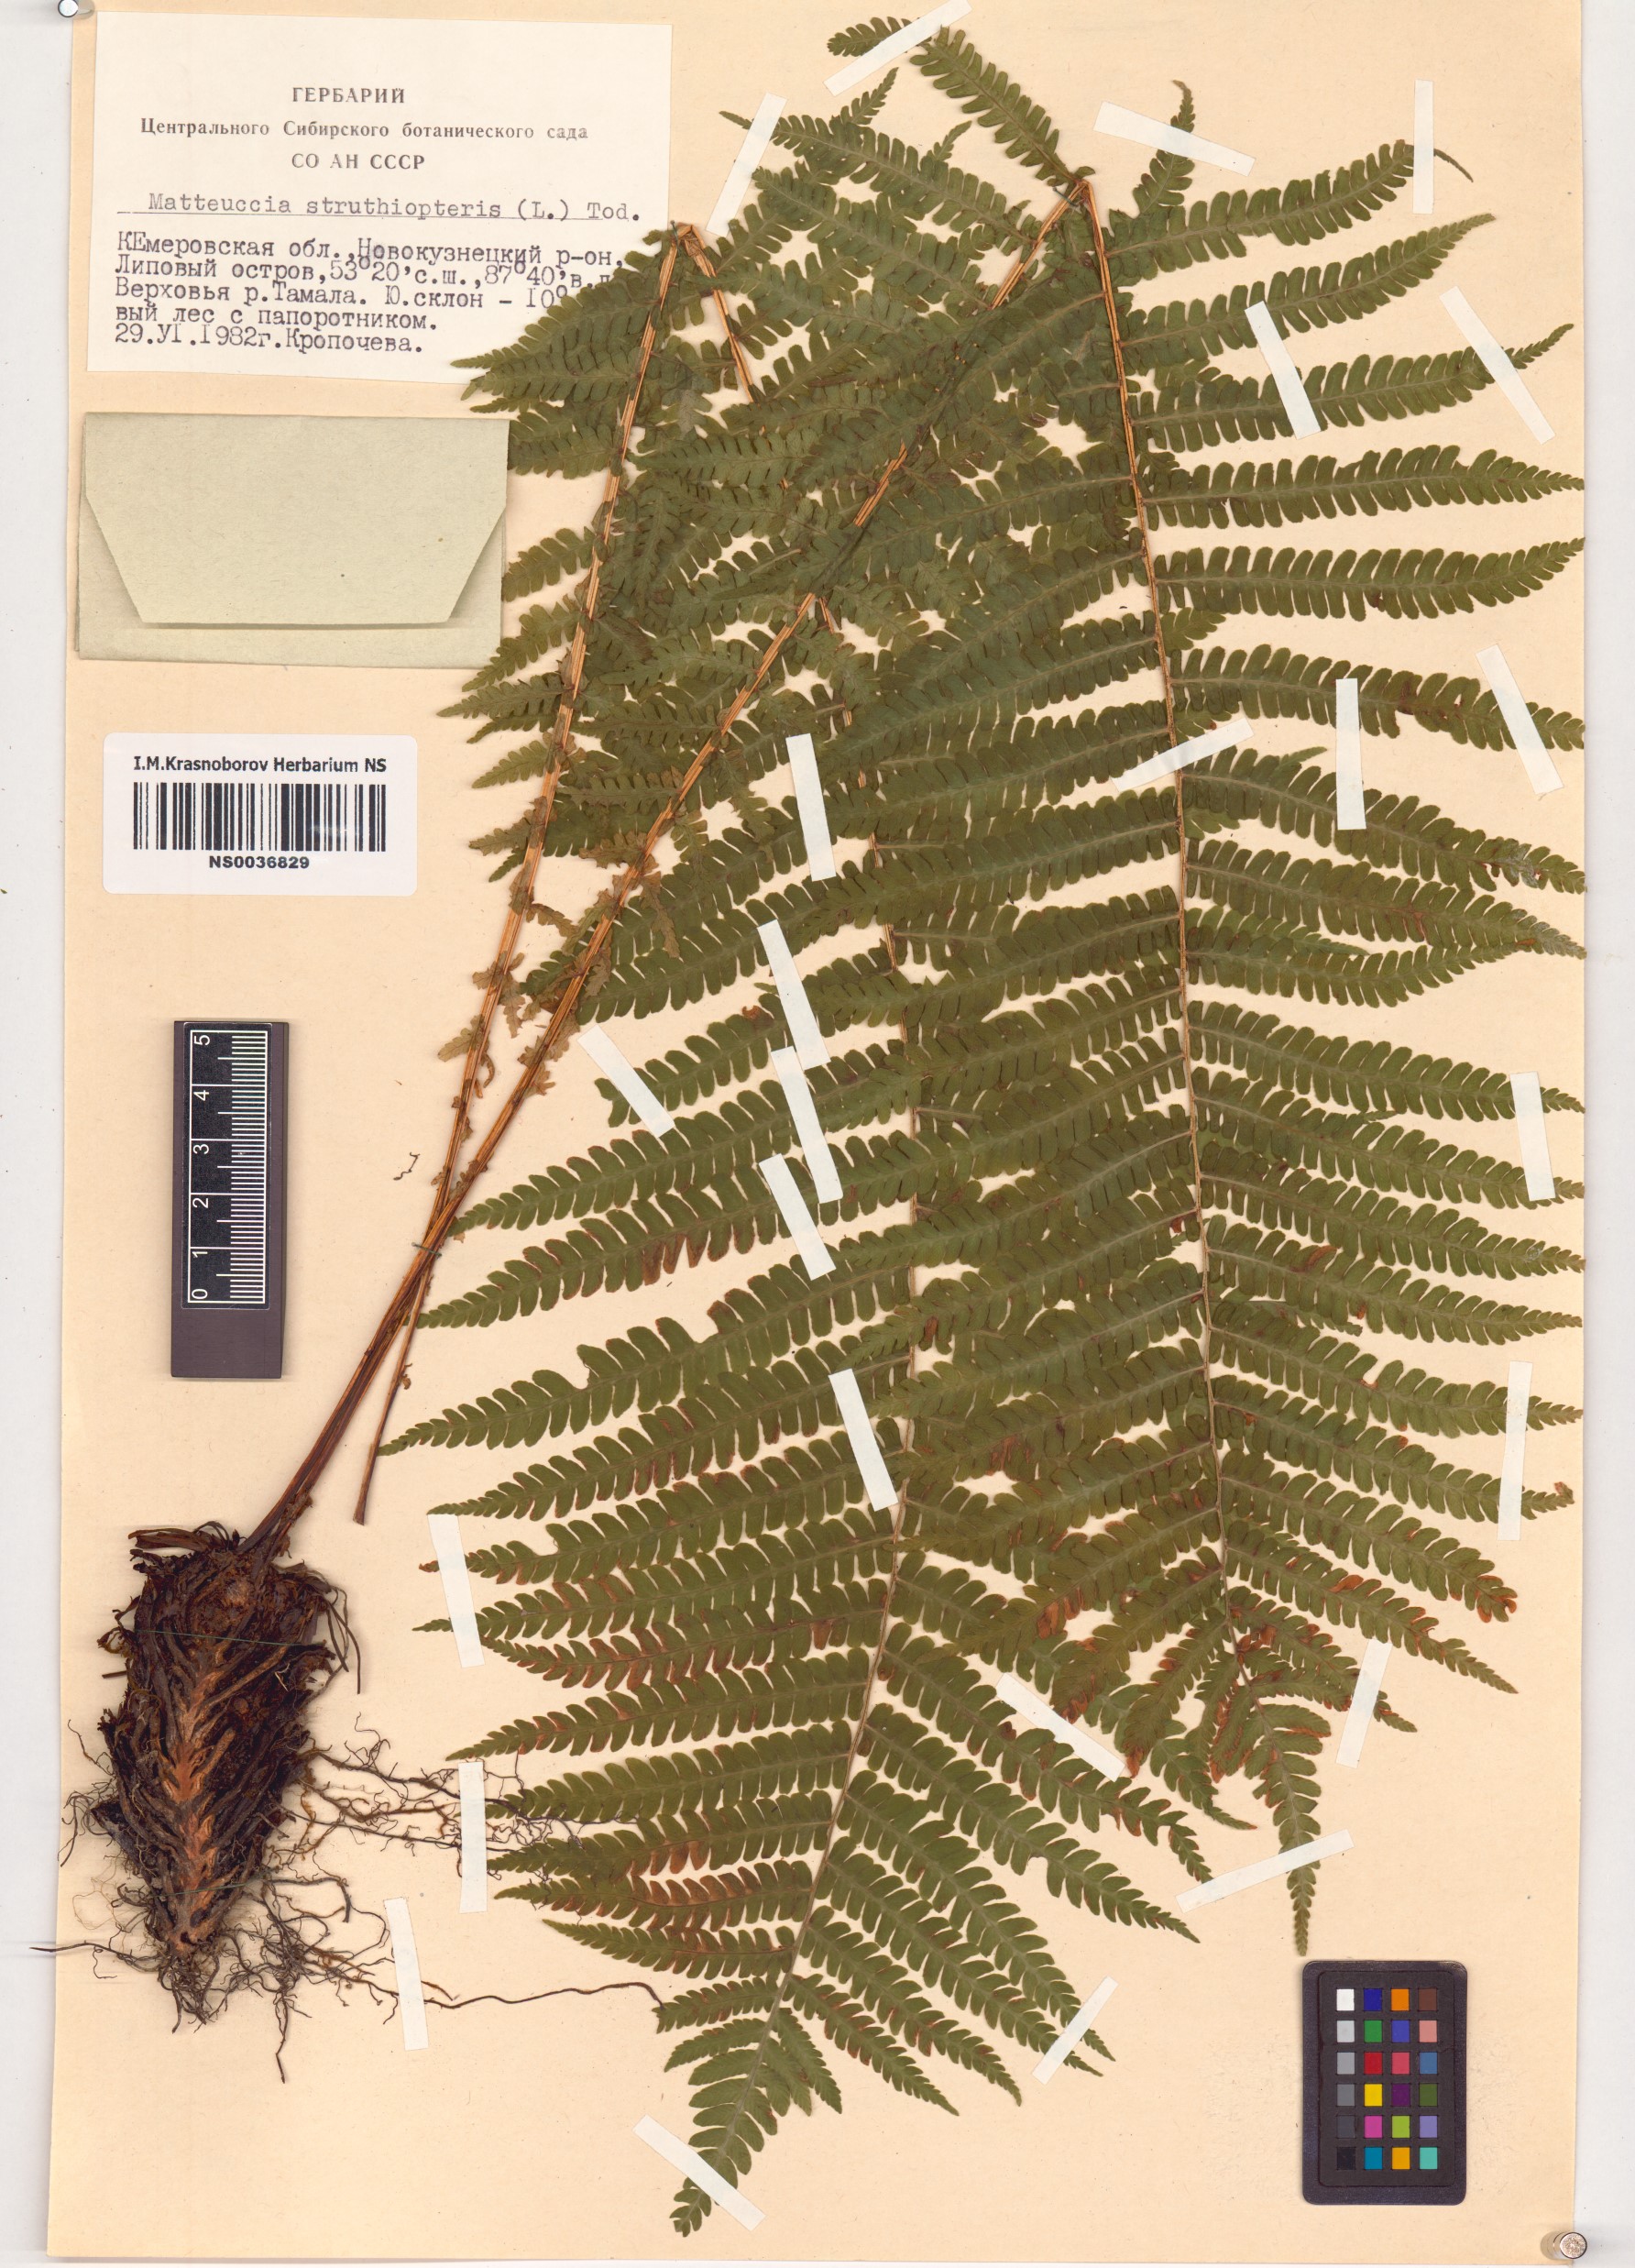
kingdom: Plantae
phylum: Tracheophyta
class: Polypodiopsida
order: Polypodiales
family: Onocleaceae
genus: Matteuccia
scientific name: Matteuccia struthiopteris
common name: Ostrich fern
